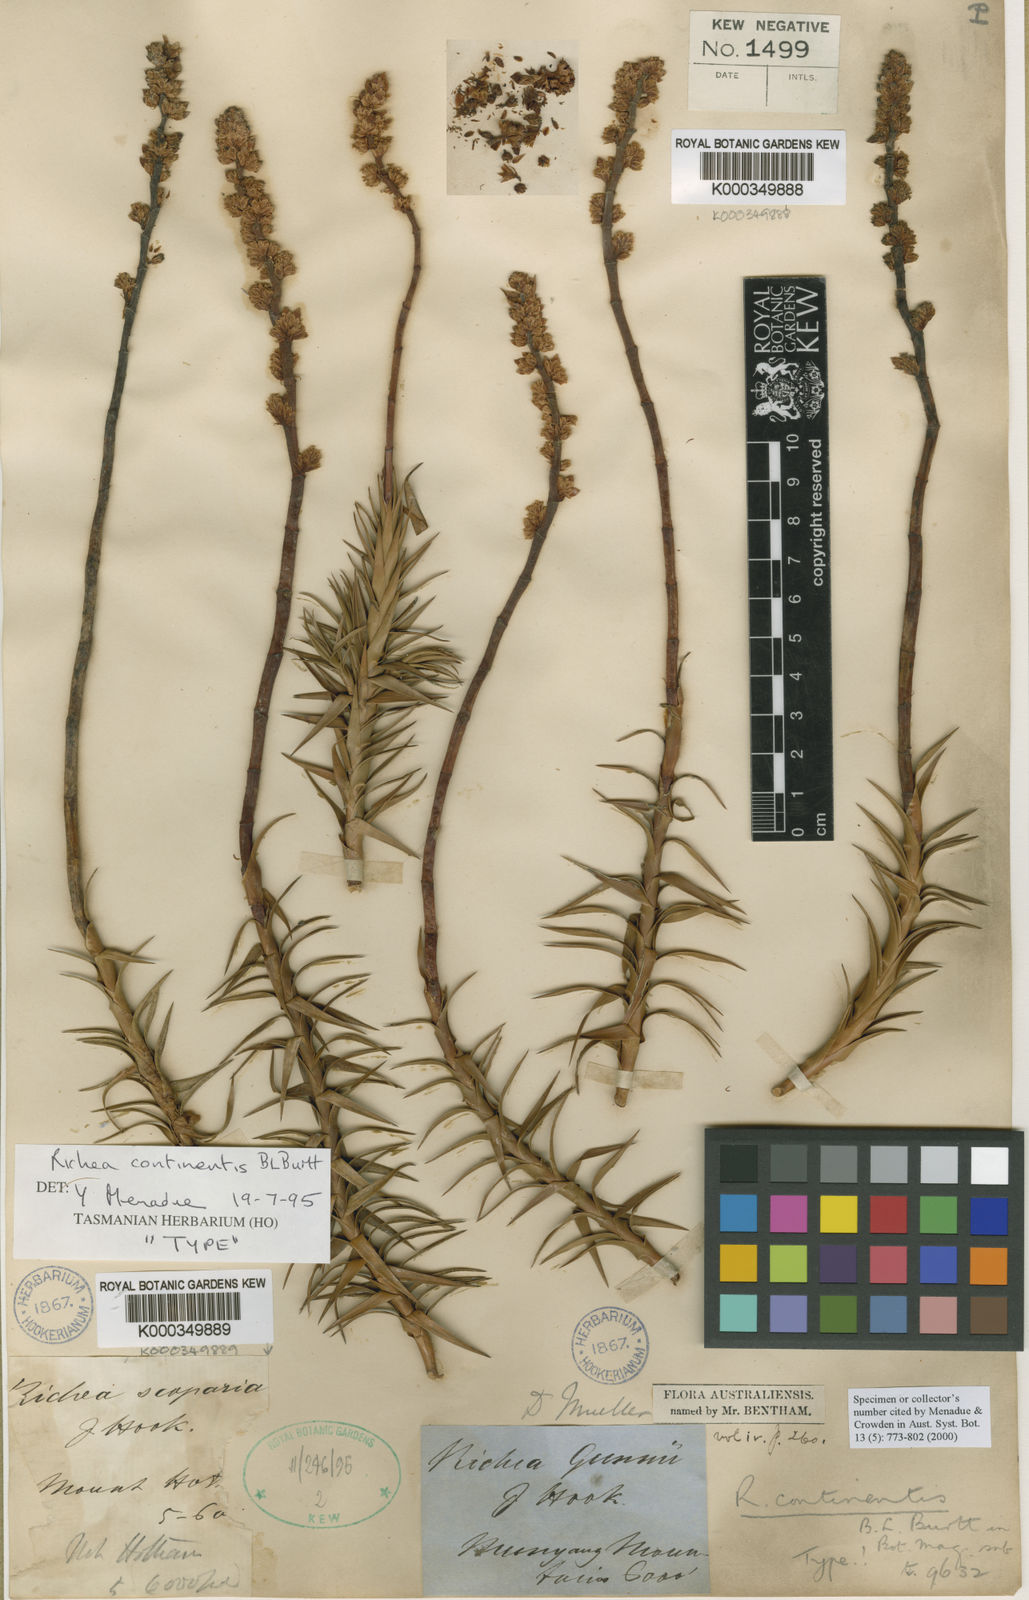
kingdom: Plantae
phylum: Tracheophyta
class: Magnoliopsida
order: Ericales
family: Ericaceae
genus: Dracophyllum
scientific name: Dracophyllum continentis
